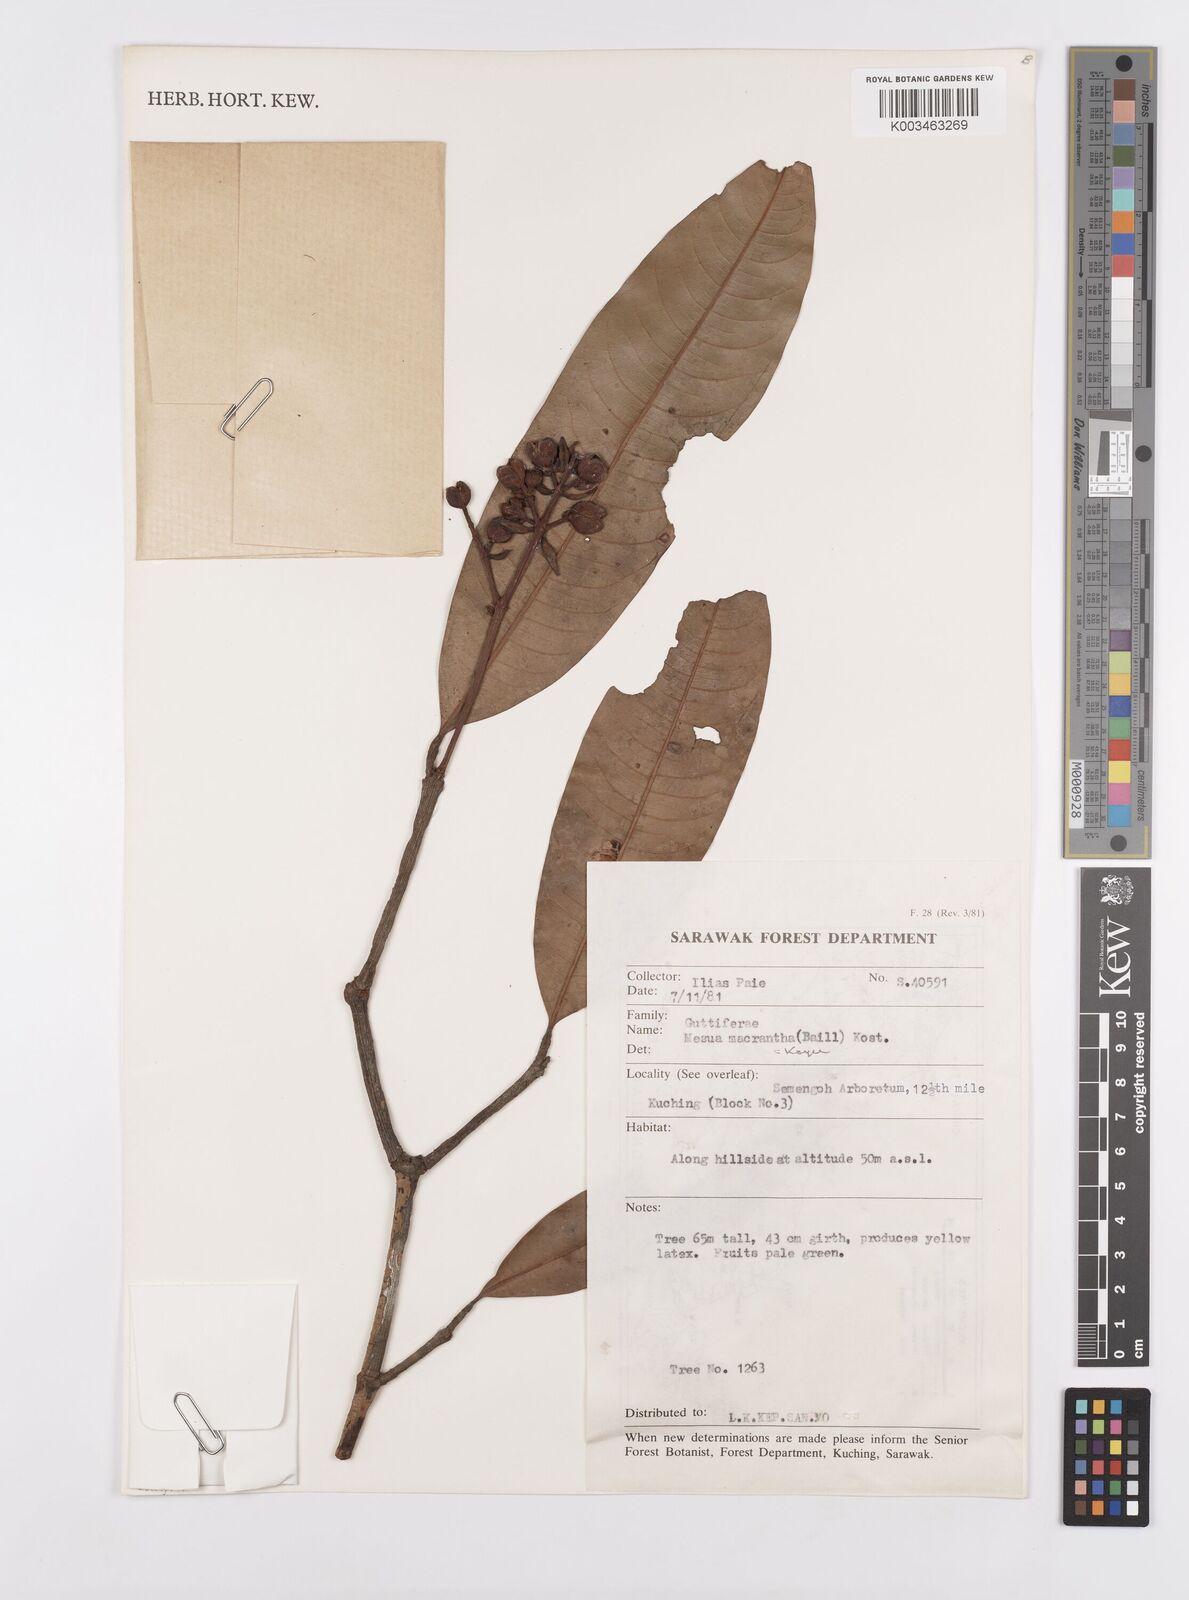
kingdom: Plantae
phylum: Tracheophyta
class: Magnoliopsida
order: Malpighiales
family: Calophyllaceae
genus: Kayea
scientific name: Kayea macrantha
